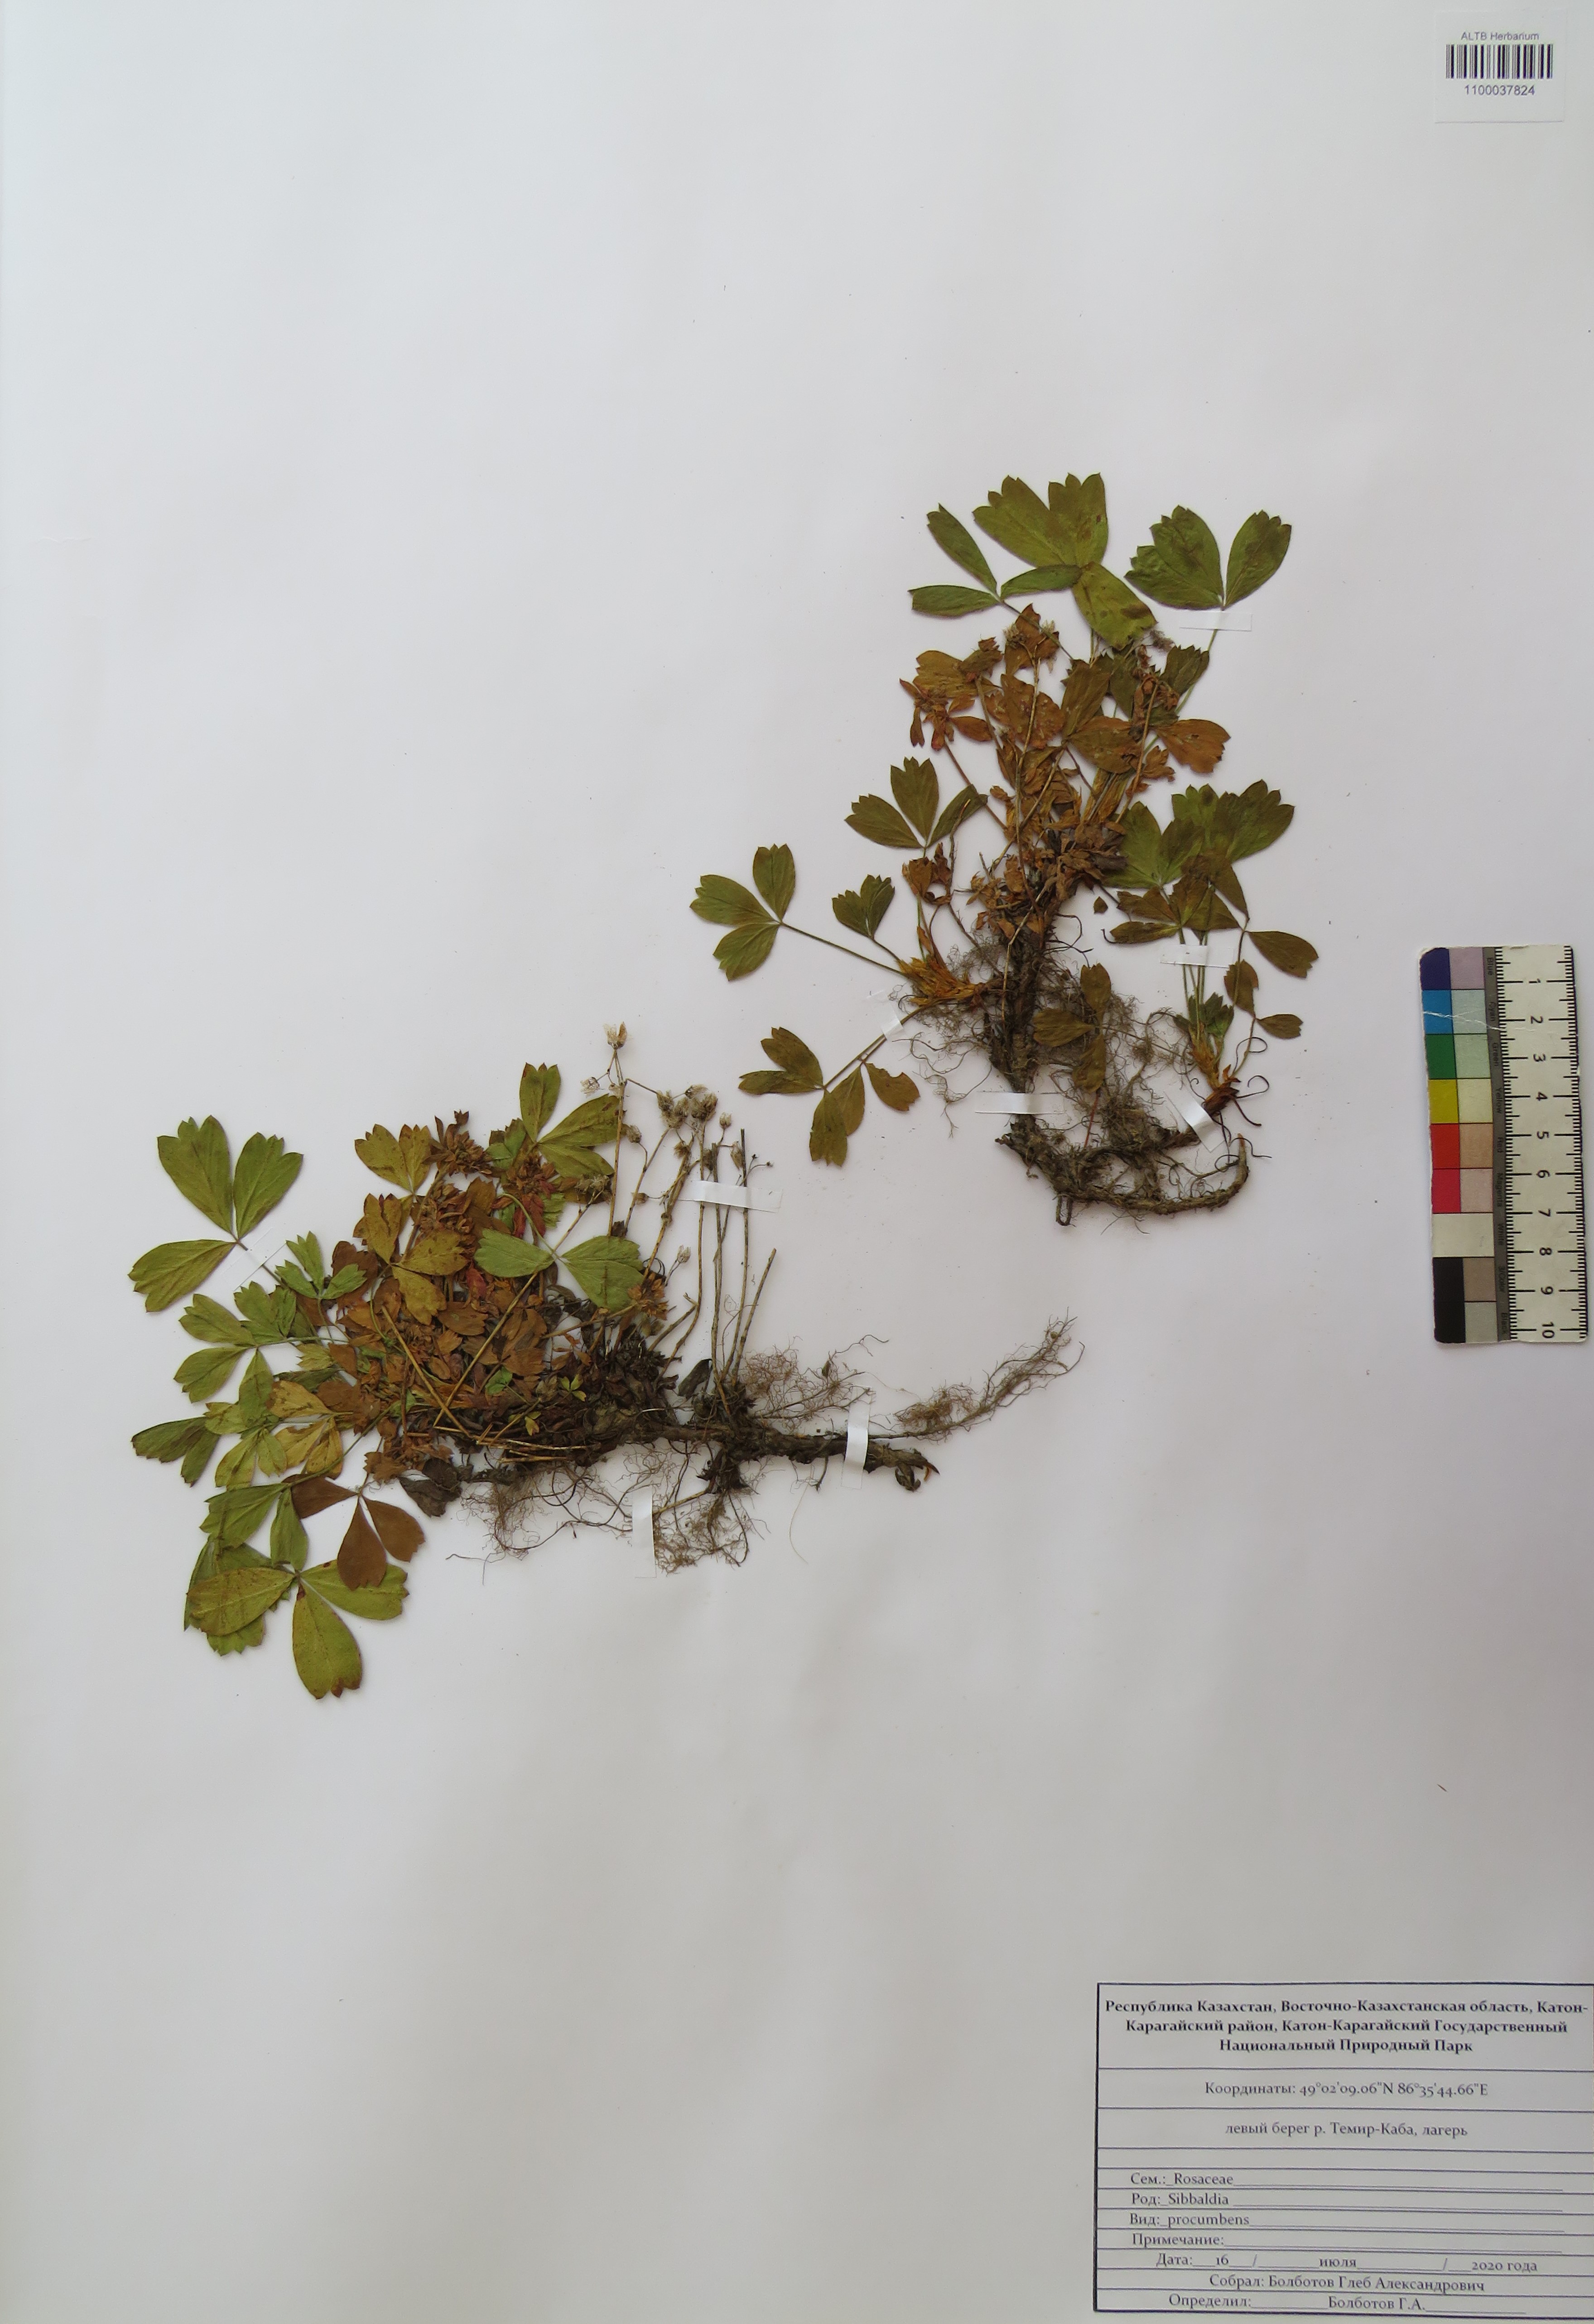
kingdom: Plantae
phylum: Tracheophyta
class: Magnoliopsida
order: Rosales
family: Rosaceae
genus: Sibbaldia
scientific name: Sibbaldia procumbens
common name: Creeping sibbaldia
